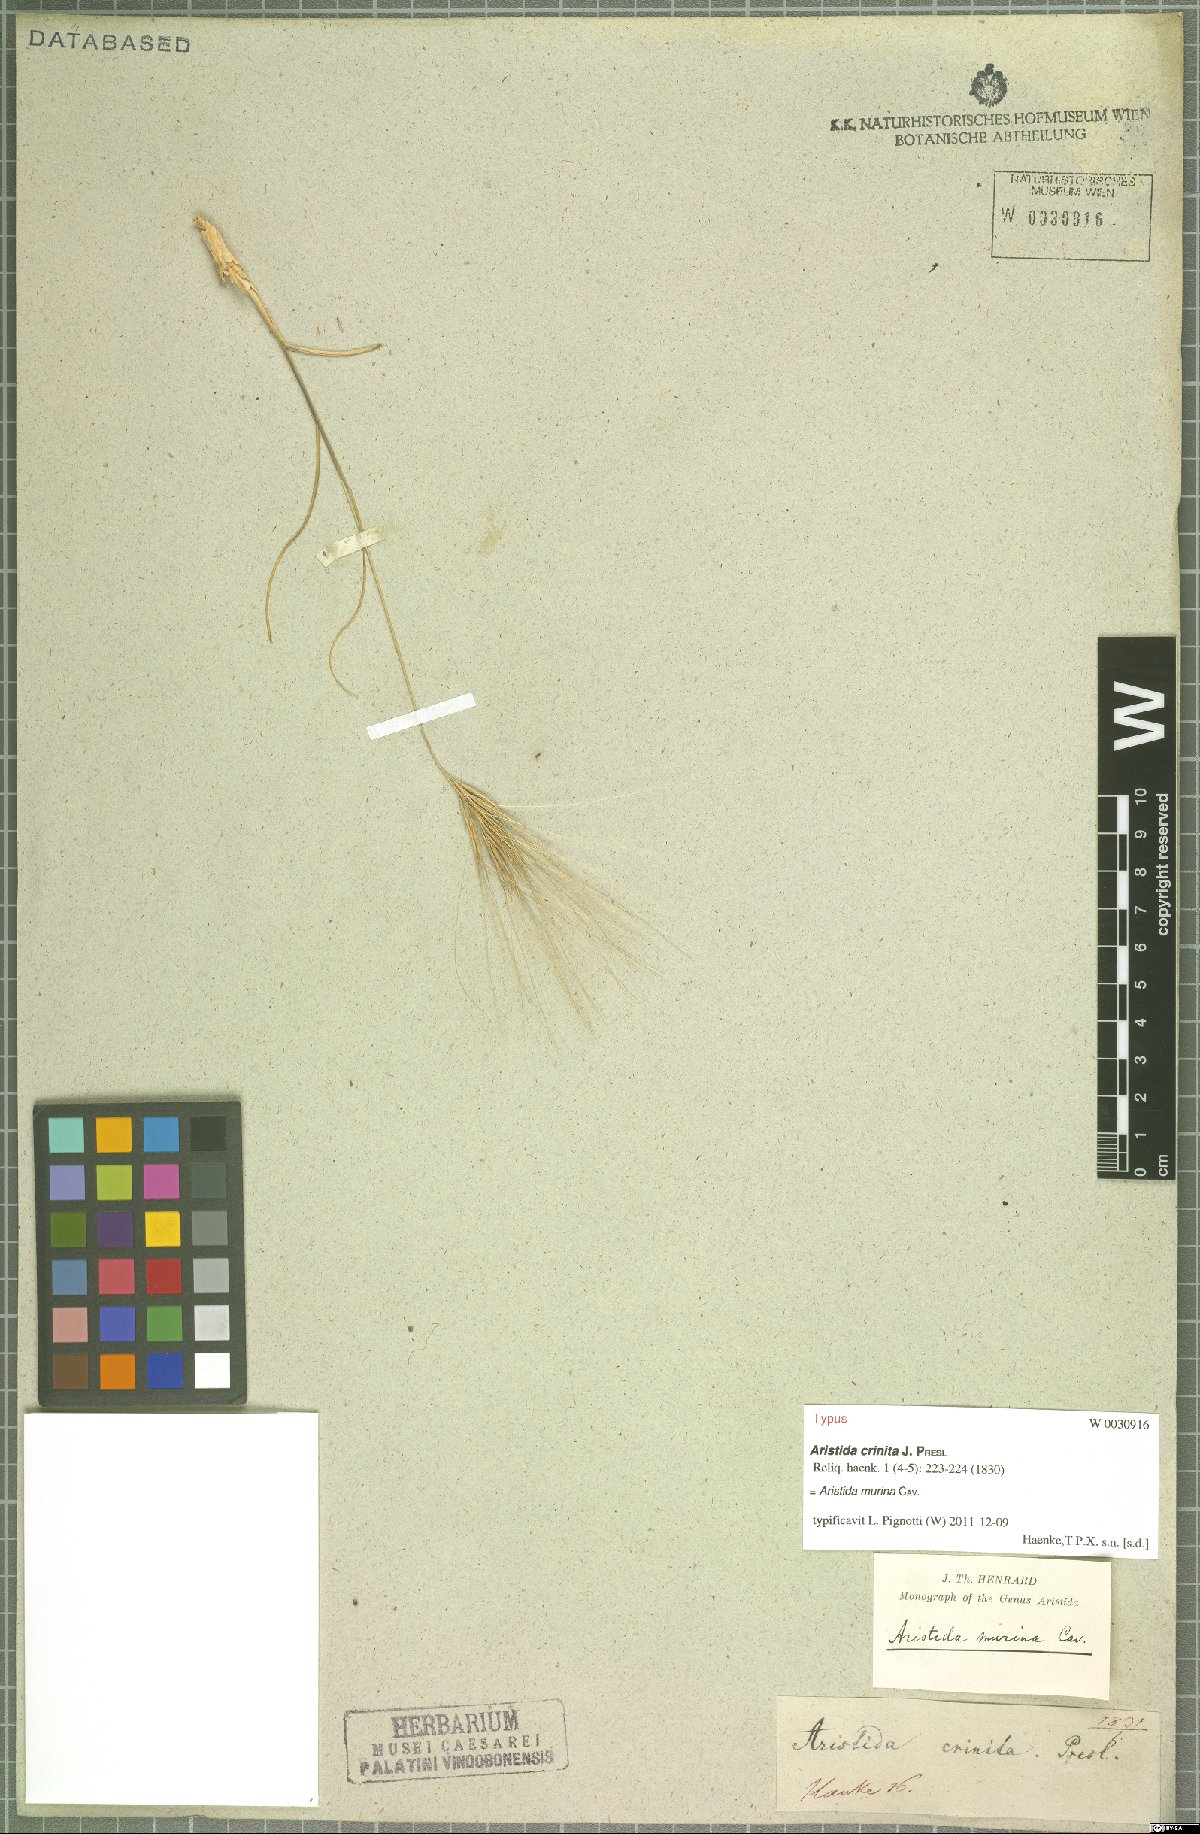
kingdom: Plantae
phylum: Tracheophyta
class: Liliopsida
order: Poales
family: Poaceae
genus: Aristida
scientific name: Aristida murina
